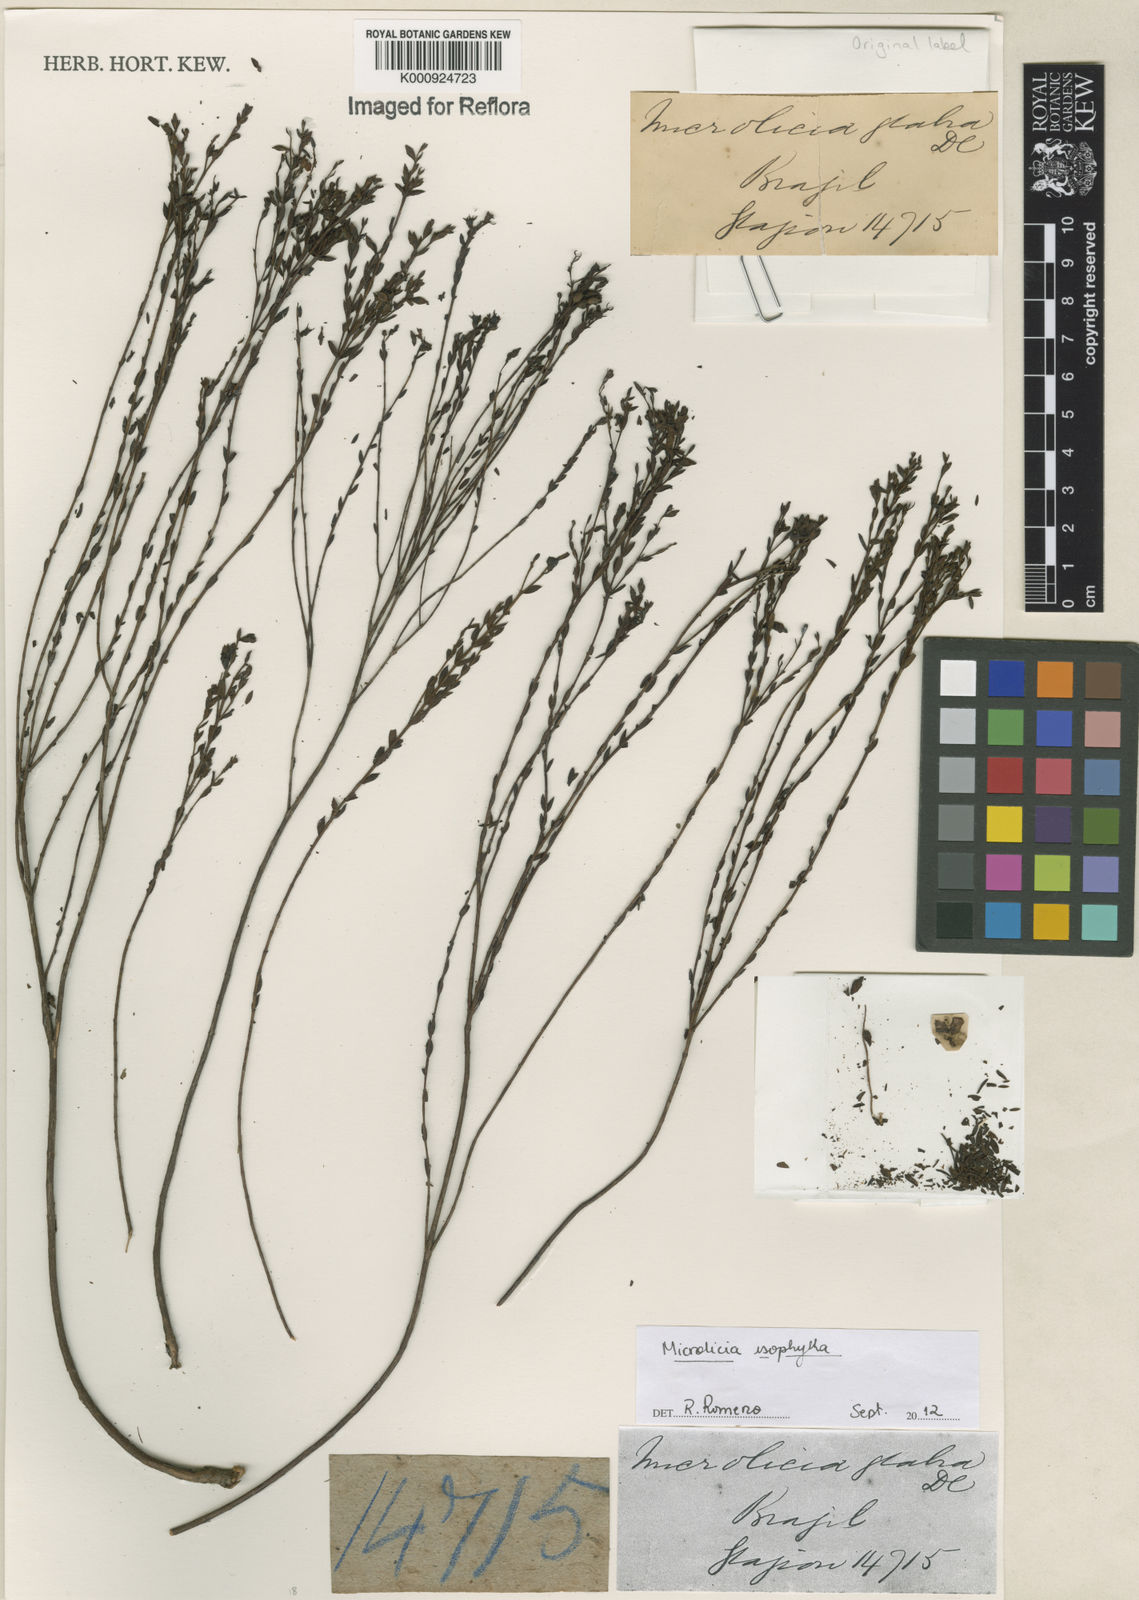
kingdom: Plantae
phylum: Tracheophyta
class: Magnoliopsida
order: Myrtales
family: Melastomataceae
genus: Microlicia
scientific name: Microlicia isophylla
